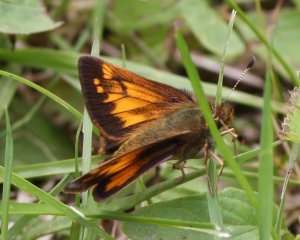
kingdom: Animalia
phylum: Arthropoda
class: Insecta
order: Lepidoptera
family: Hesperiidae
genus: Lon
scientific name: Lon hobomok
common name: Hobomok Skipper
